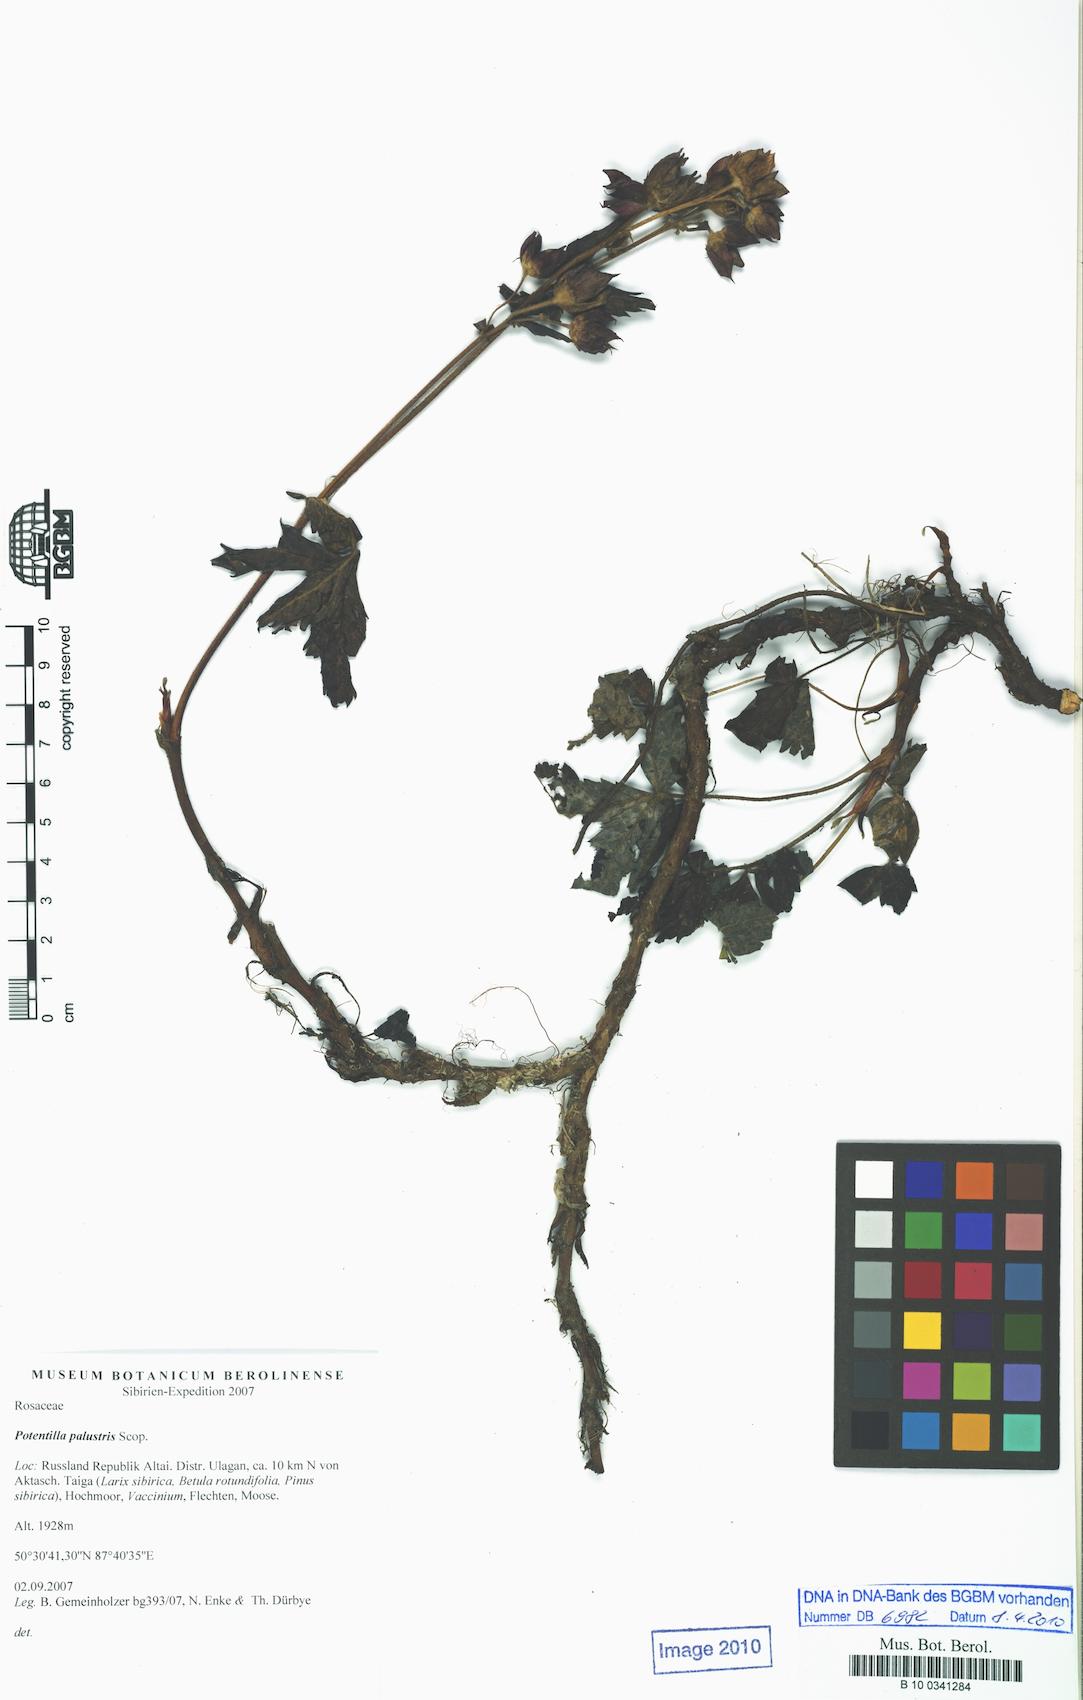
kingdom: Plantae
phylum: Tracheophyta
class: Magnoliopsida
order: Rosales
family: Rosaceae
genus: Comarum
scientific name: Comarum palustre
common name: Marsh cinquefoil
